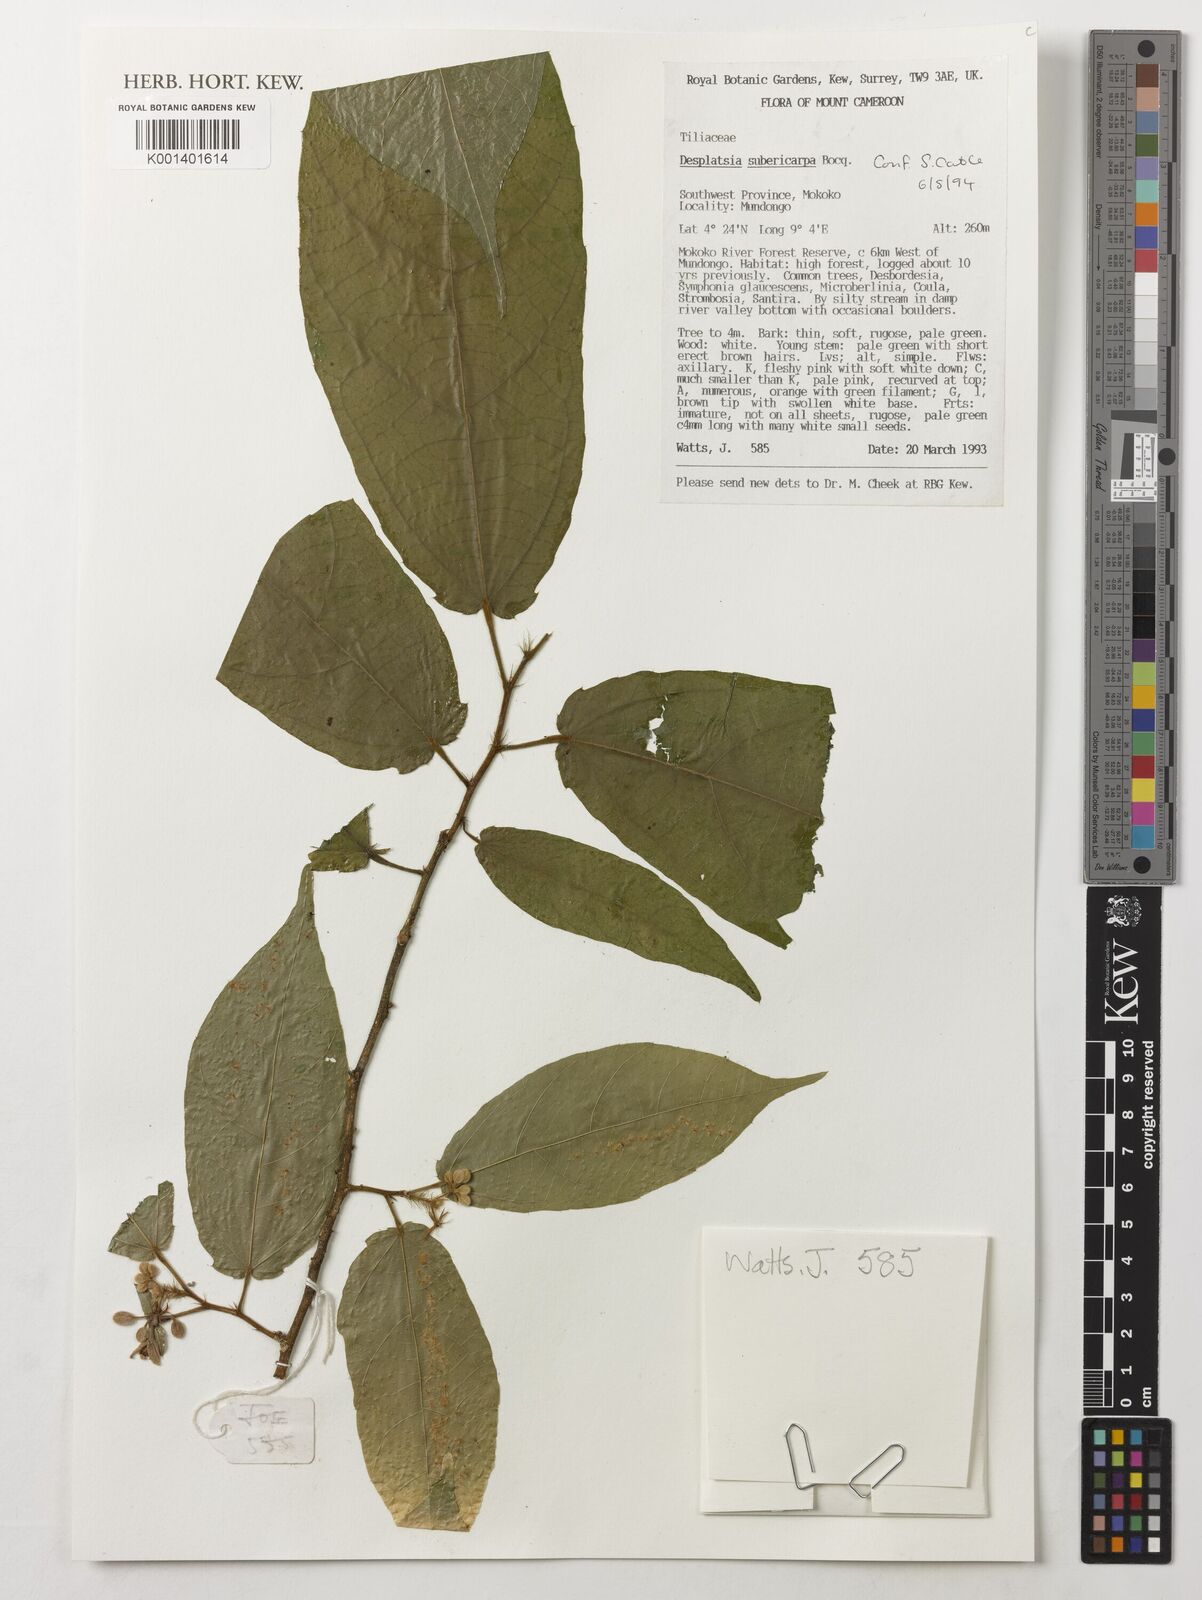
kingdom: Plantae
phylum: Tracheophyta
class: Magnoliopsida
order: Malvales
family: Malvaceae
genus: Desplatsia
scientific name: Desplatsia subericarpa
